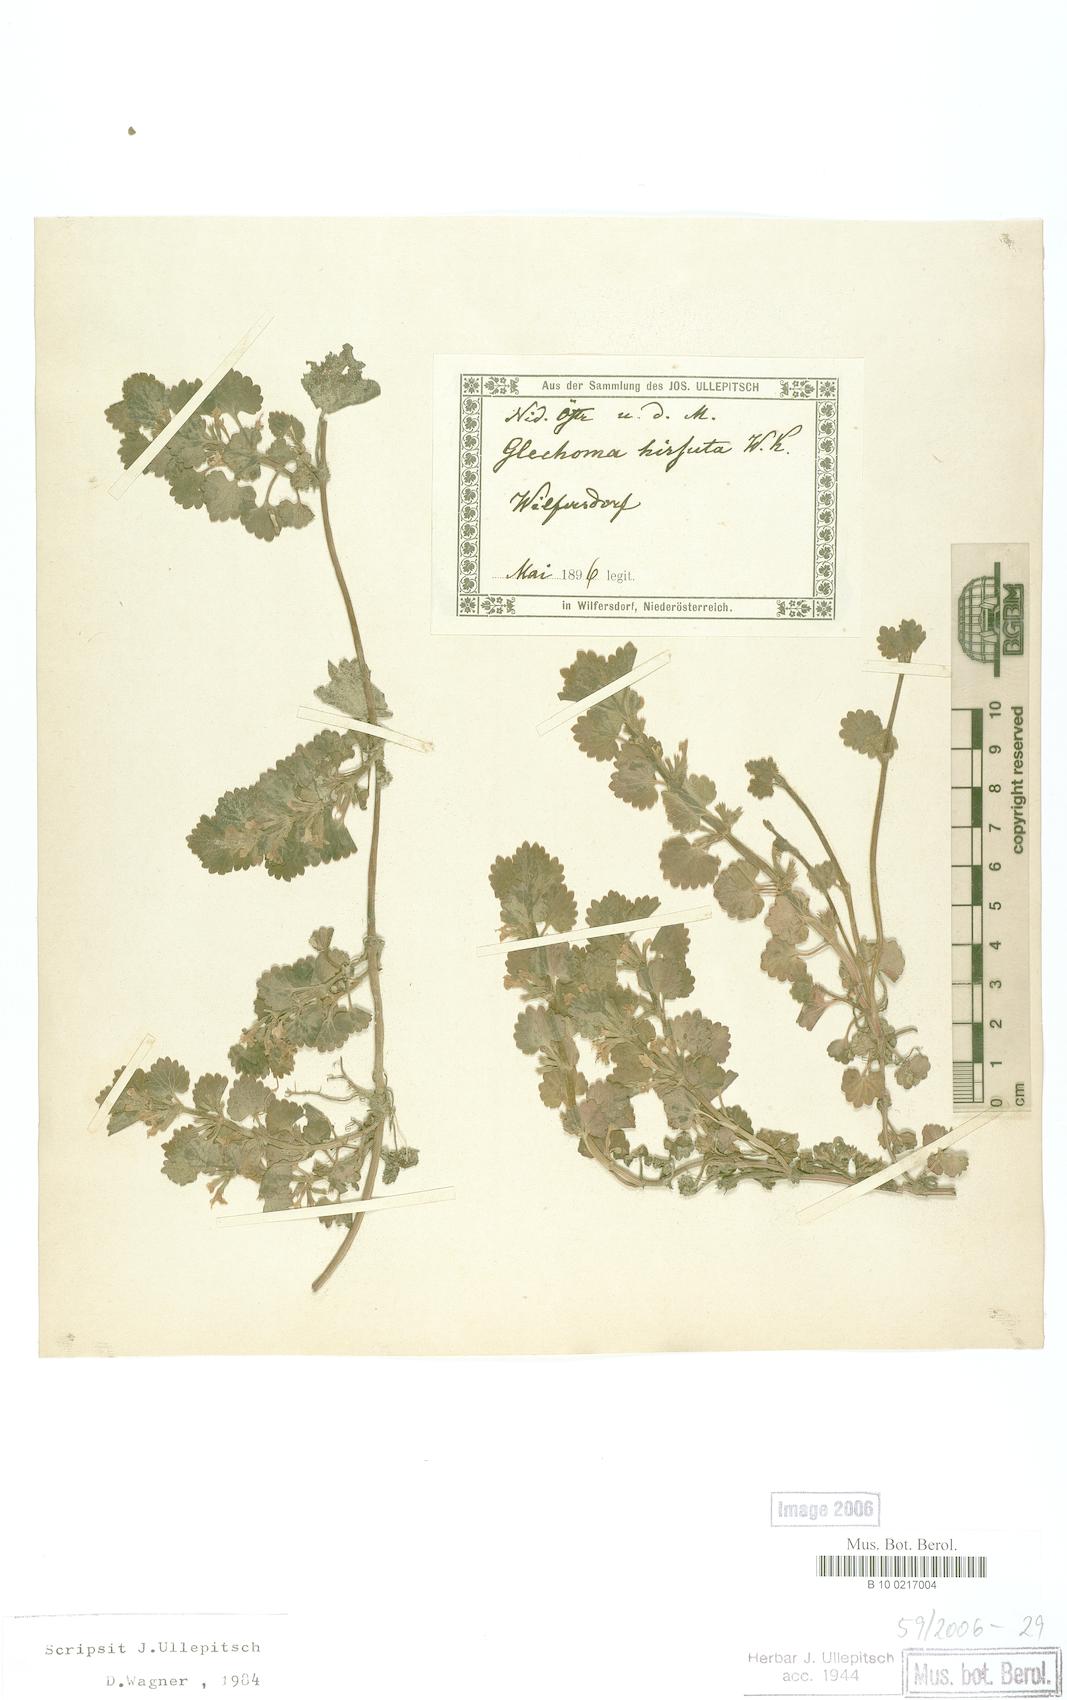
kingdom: Plantae
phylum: Tracheophyta
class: Magnoliopsida
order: Lamiales
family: Lamiaceae
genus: Glechoma
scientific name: Glechoma hirsuta
